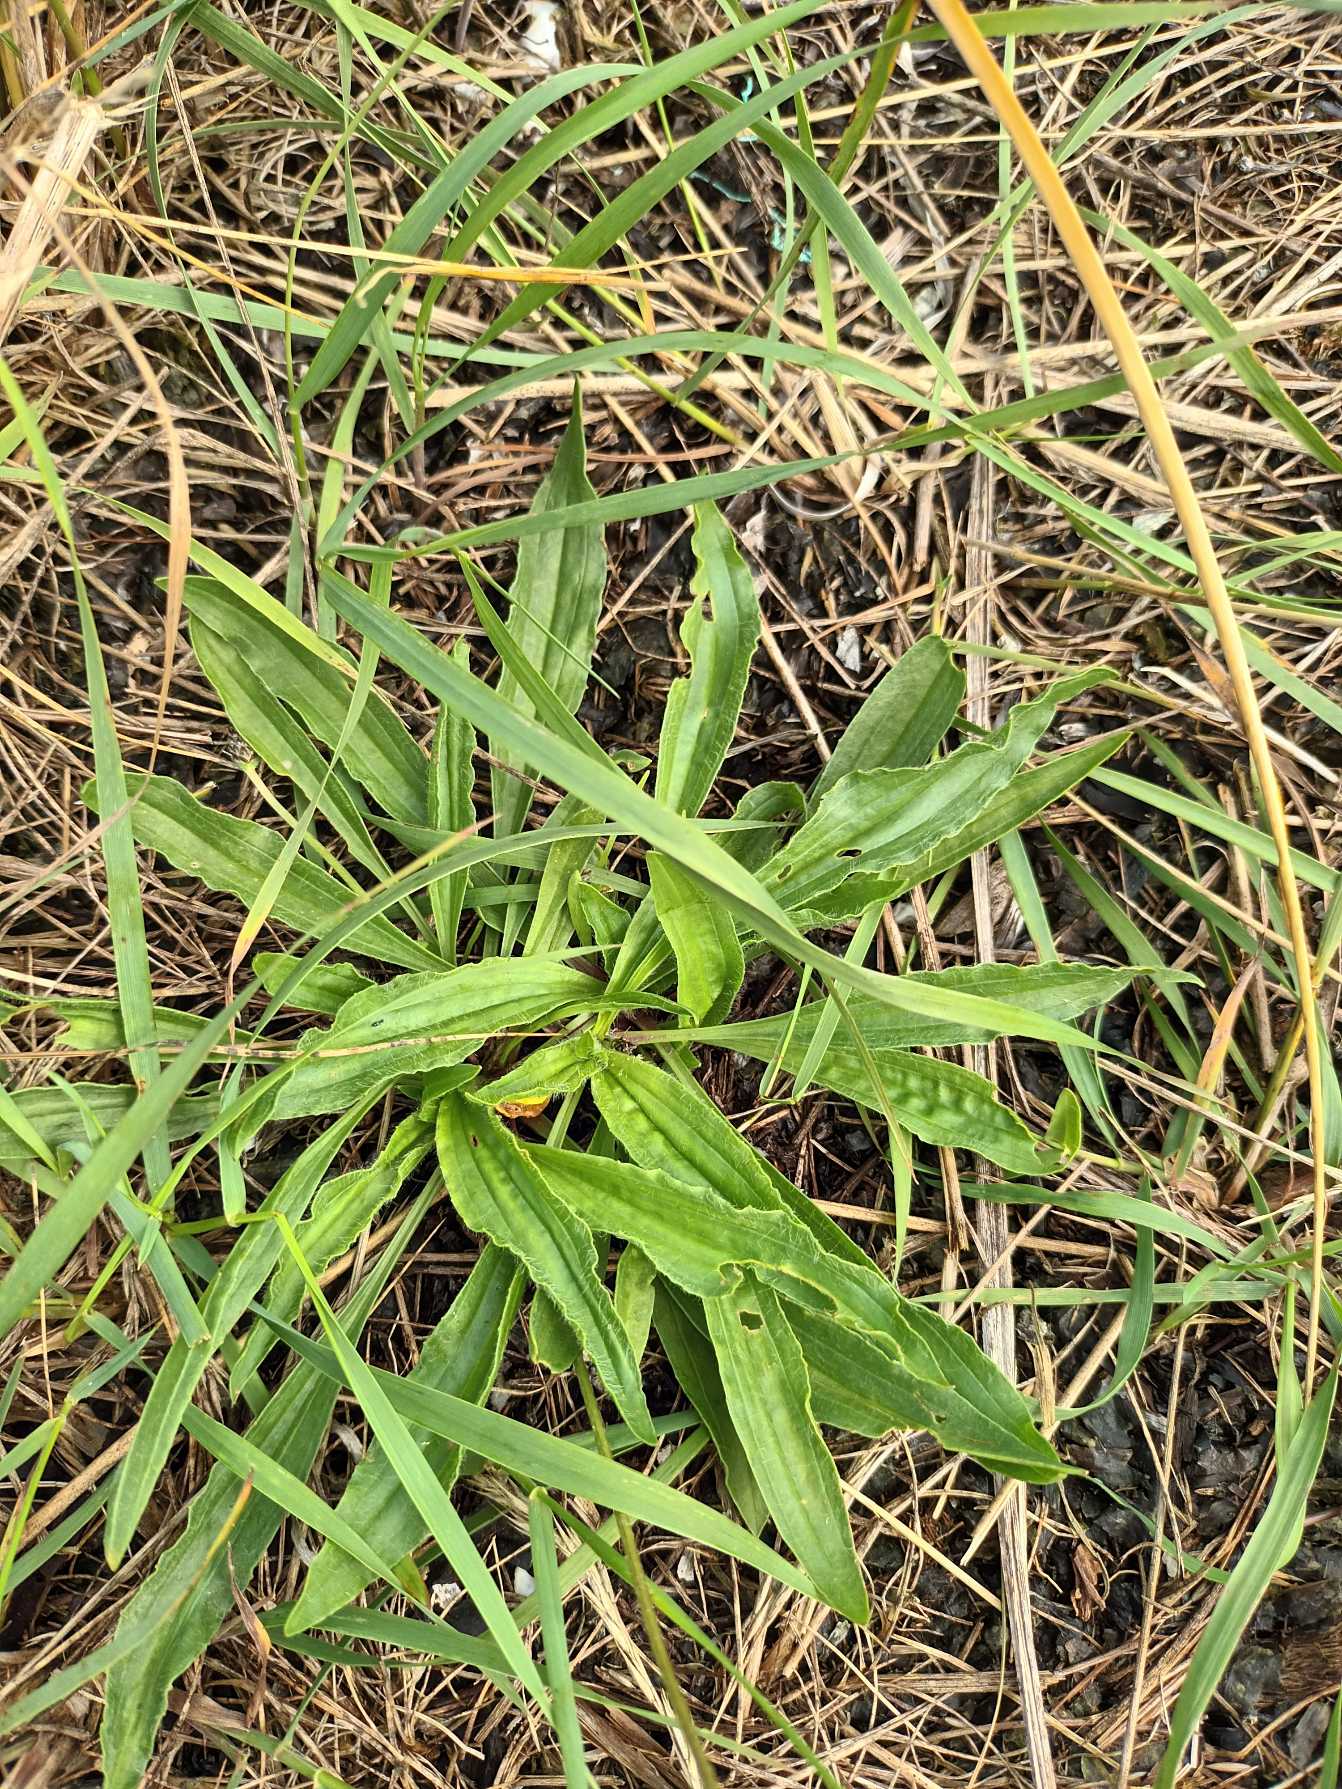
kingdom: Plantae
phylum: Tracheophyta
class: Magnoliopsida
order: Lamiales
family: Plantaginaceae
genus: Plantago
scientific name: Plantago lanceolata
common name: Lancet-vejbred
